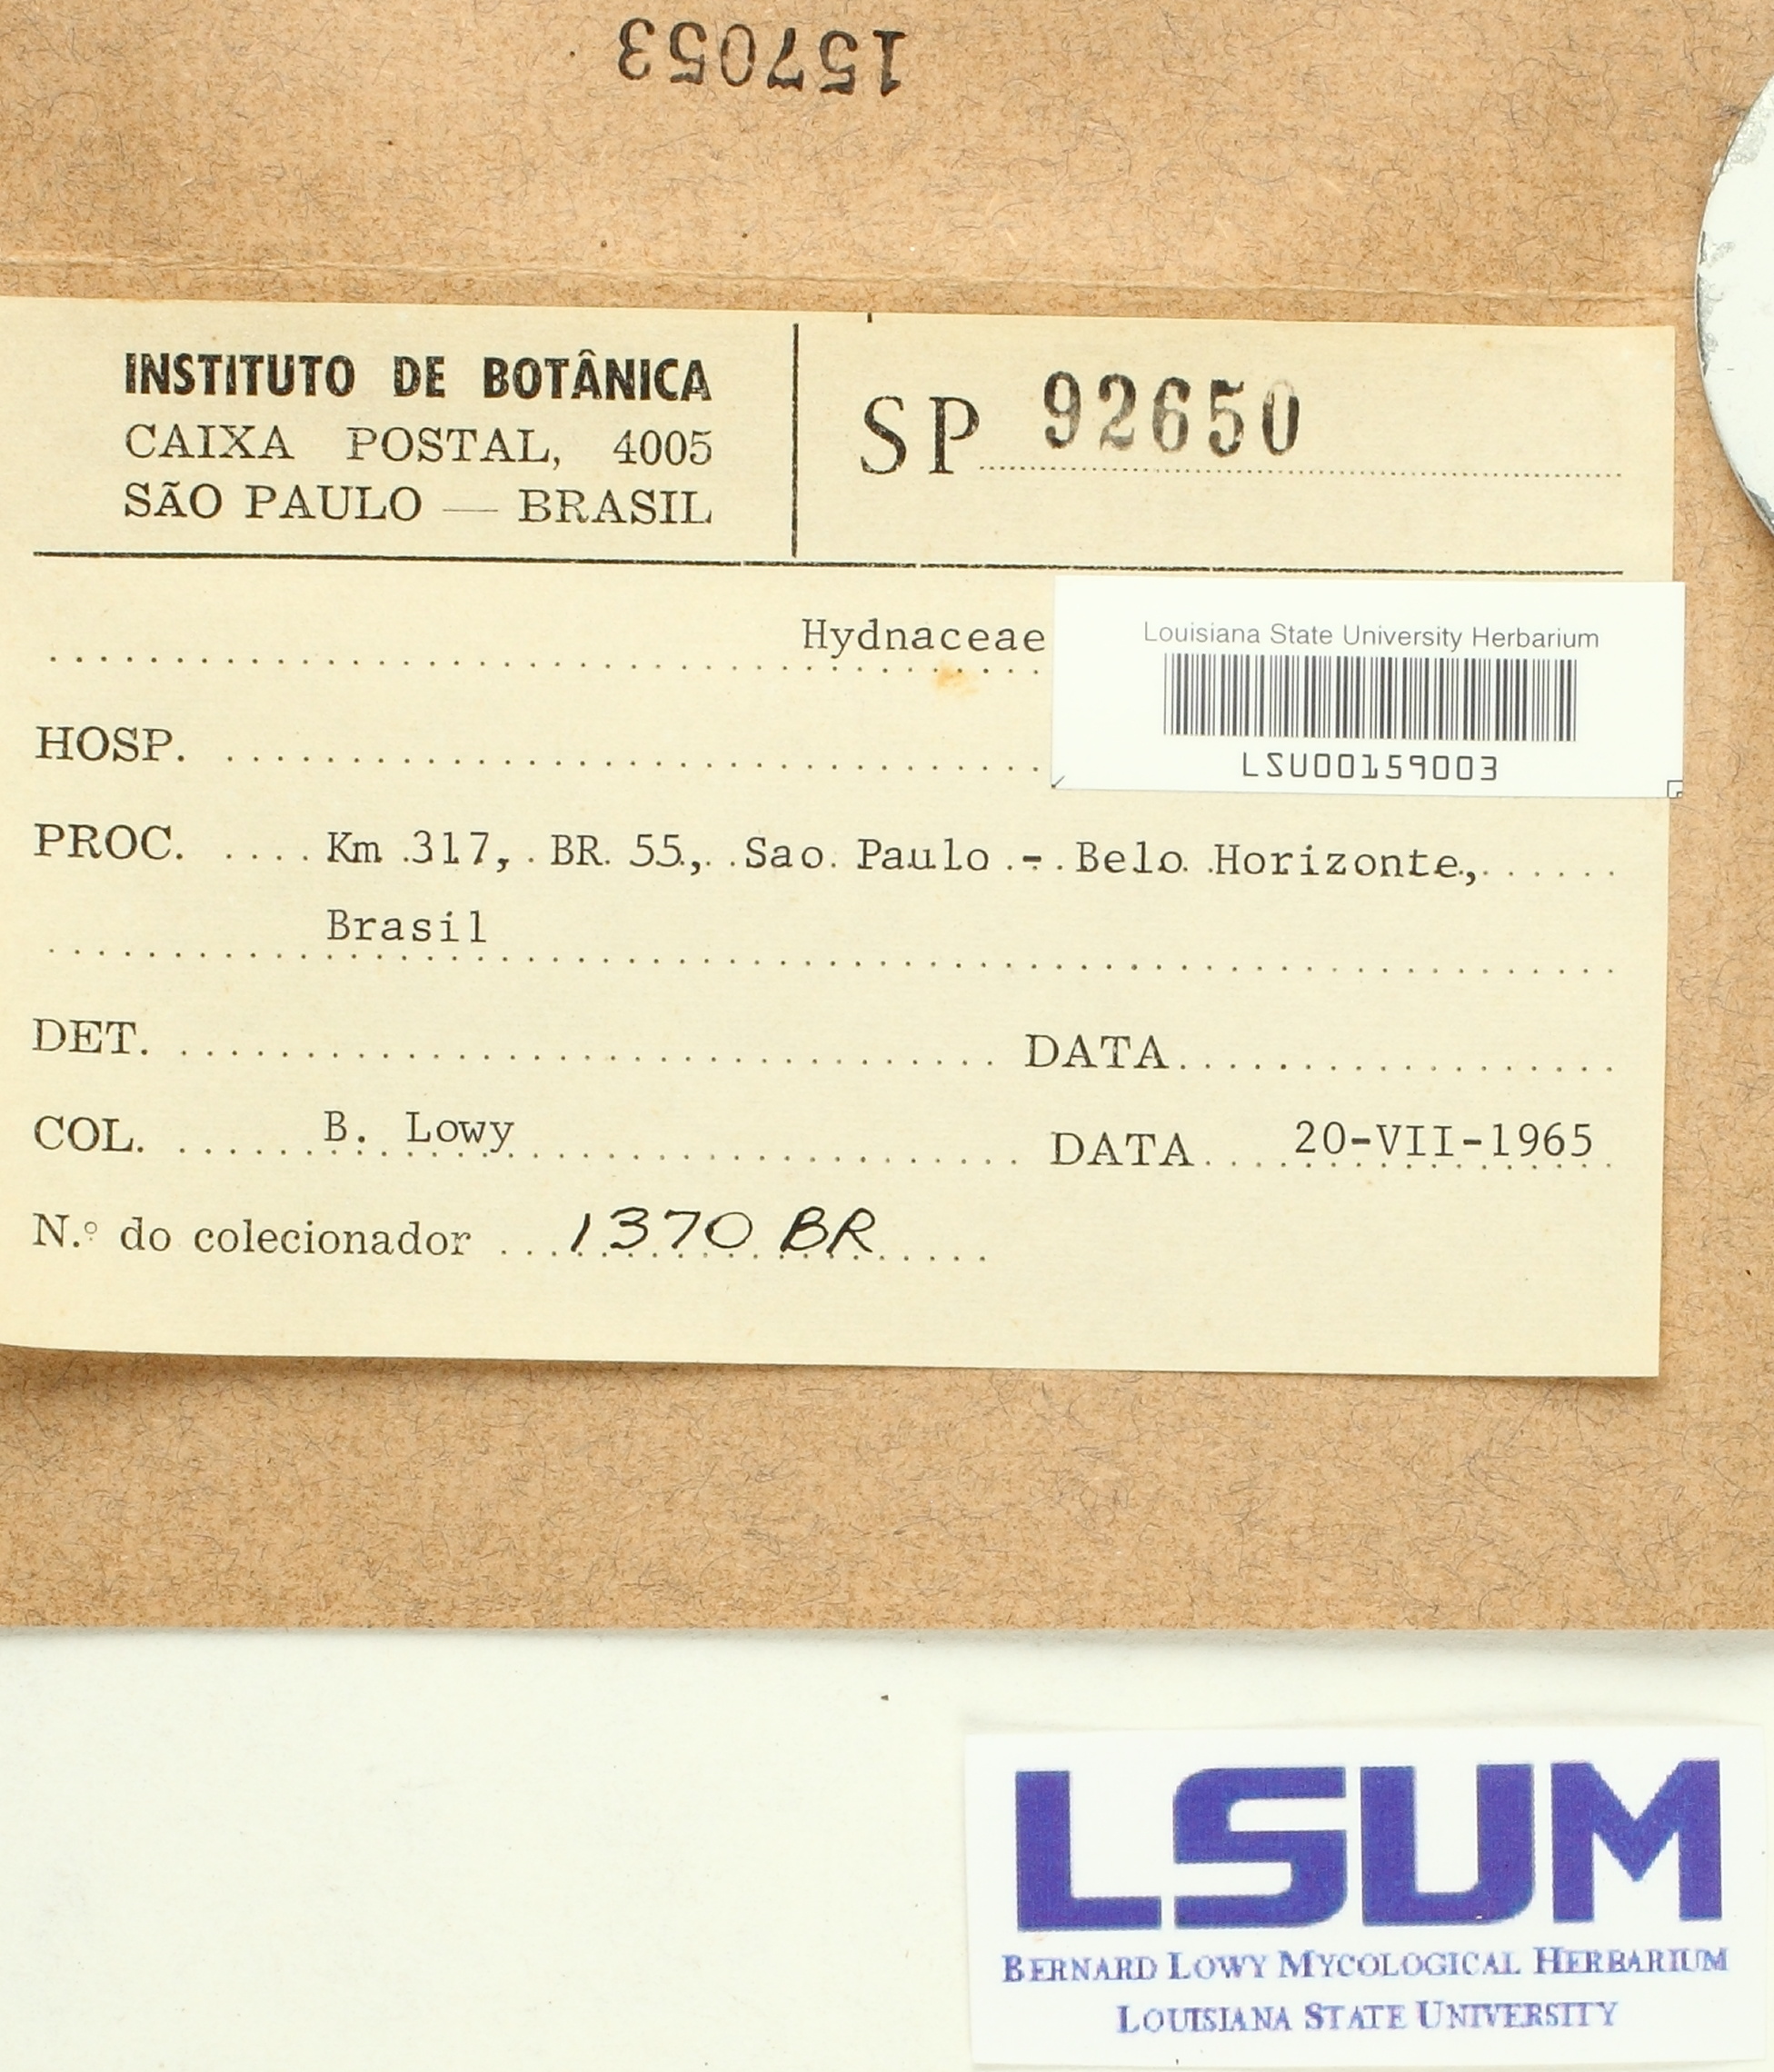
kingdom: Fungi
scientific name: Fungi
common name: Fungi
